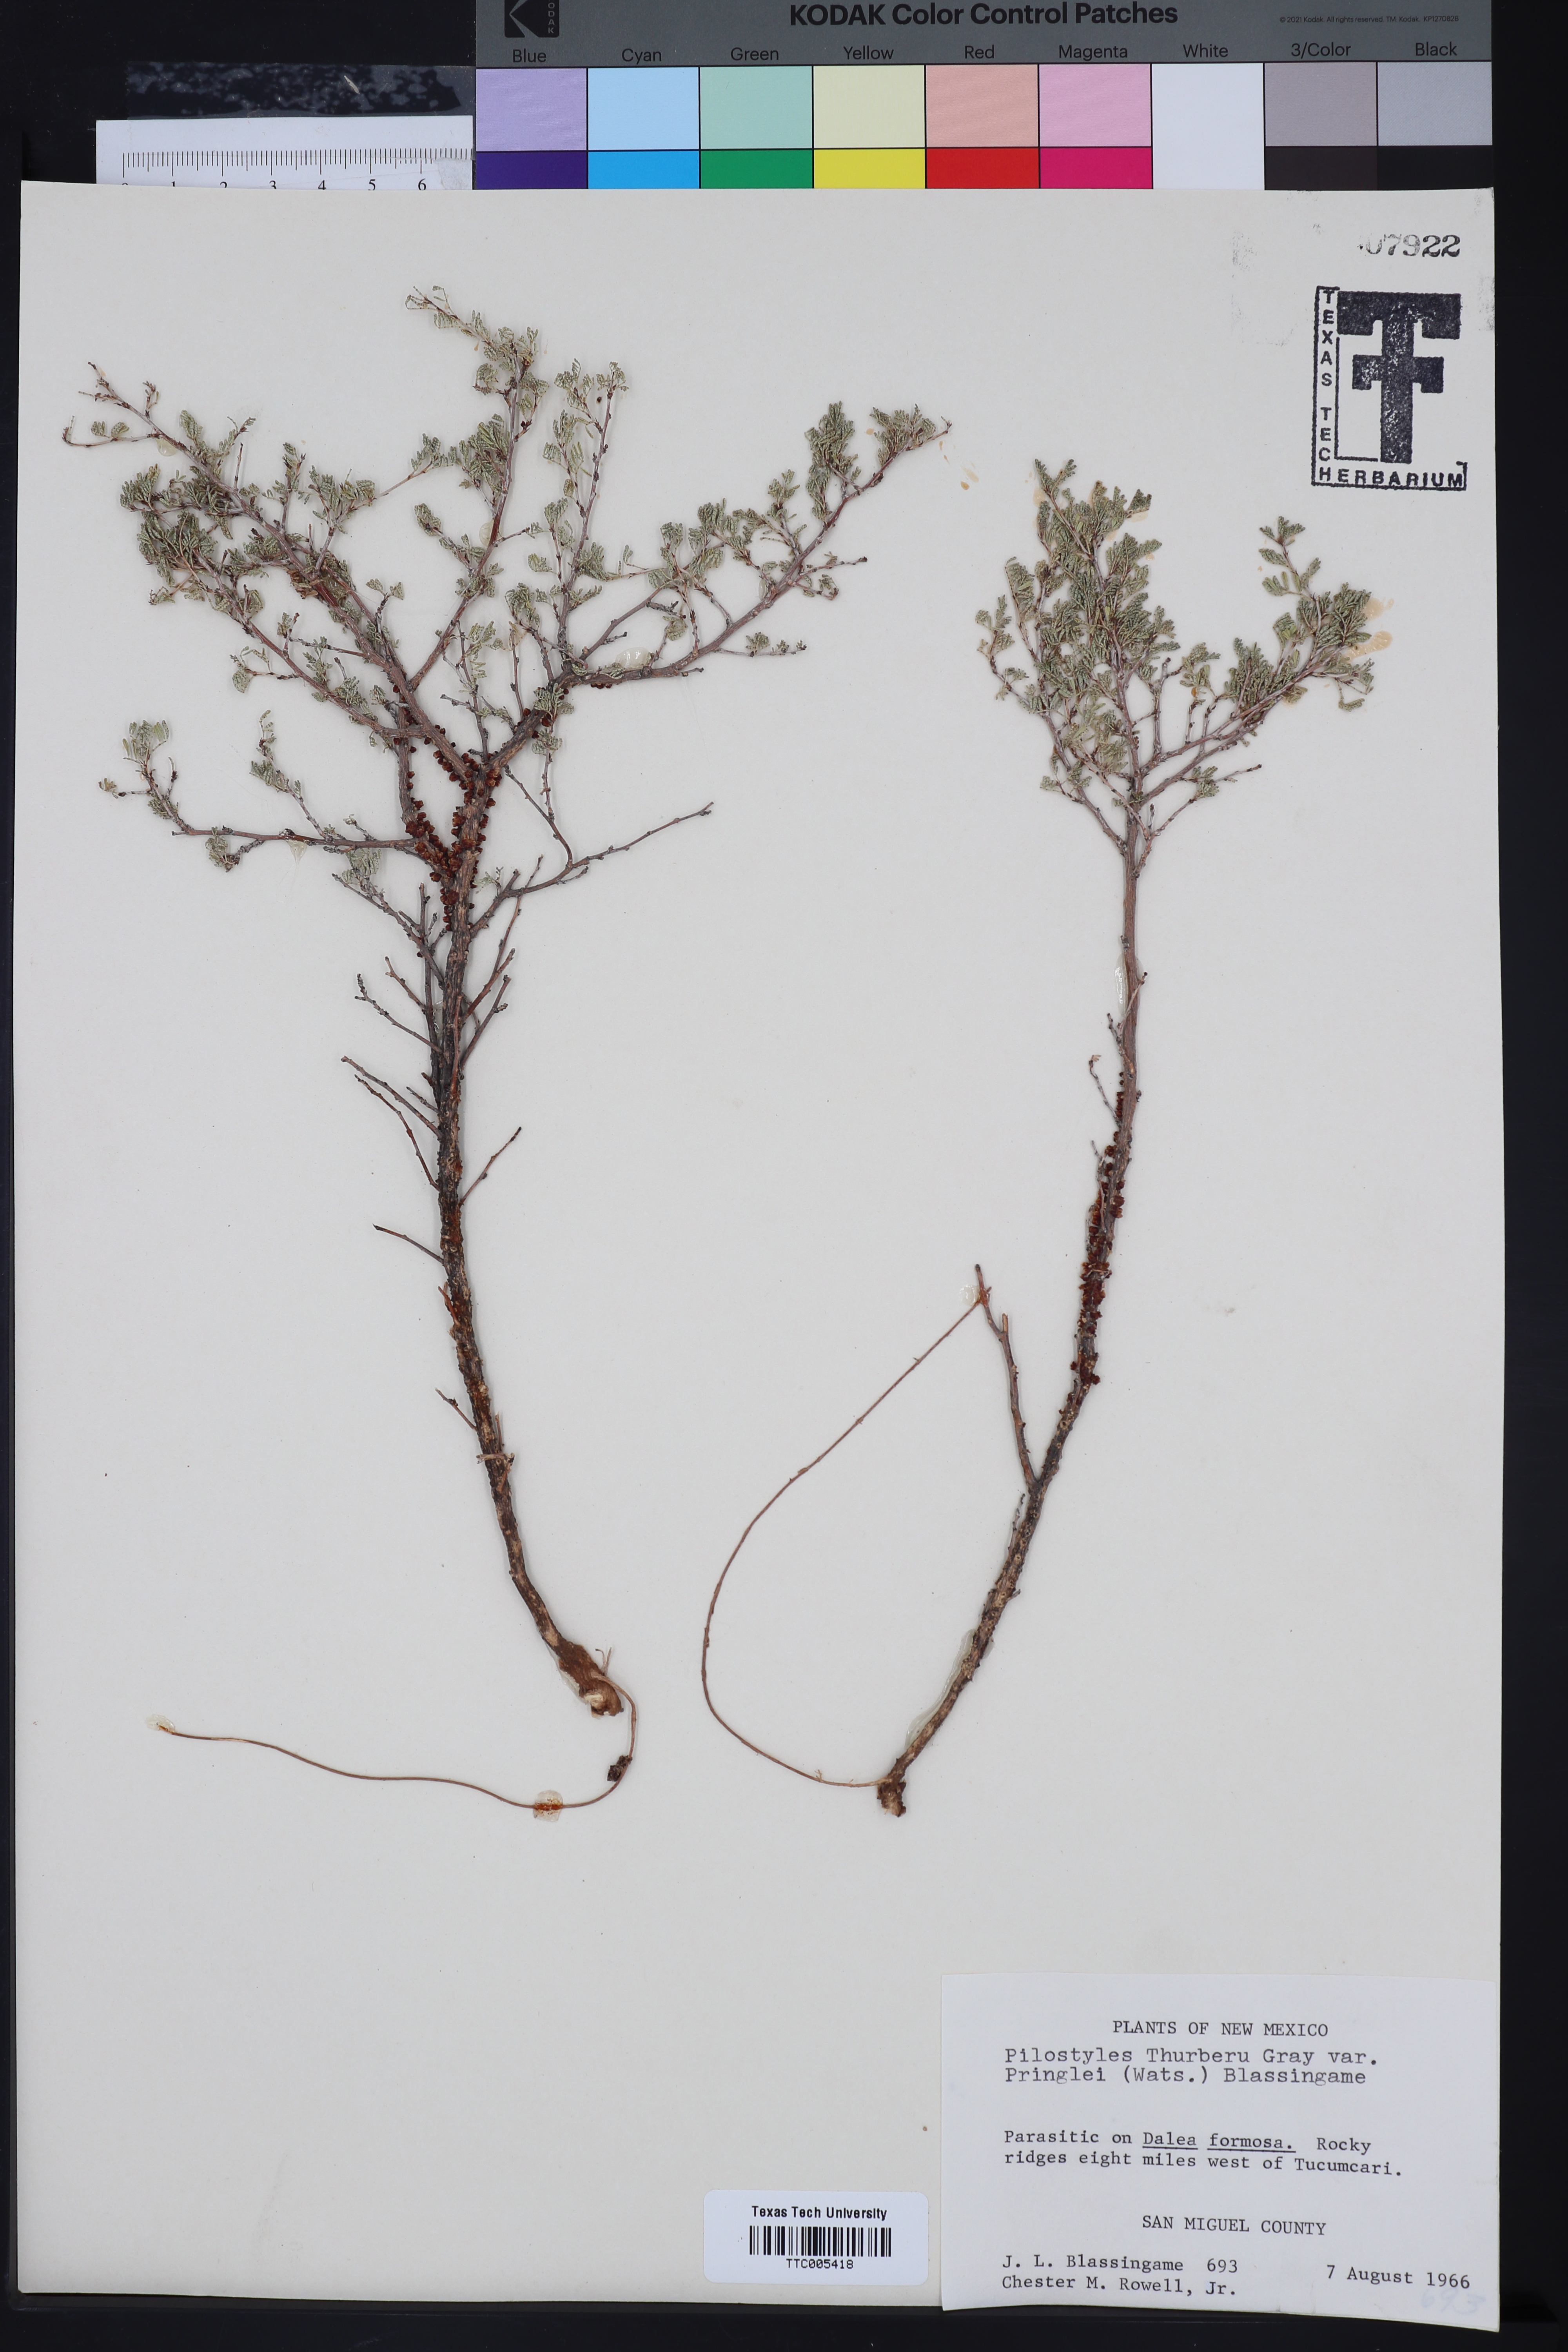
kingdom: Plantae
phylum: Tracheophyta
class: Magnoliopsida
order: Cucurbitales
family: Apodanthaceae
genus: Pilostyles
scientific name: Pilostyles
